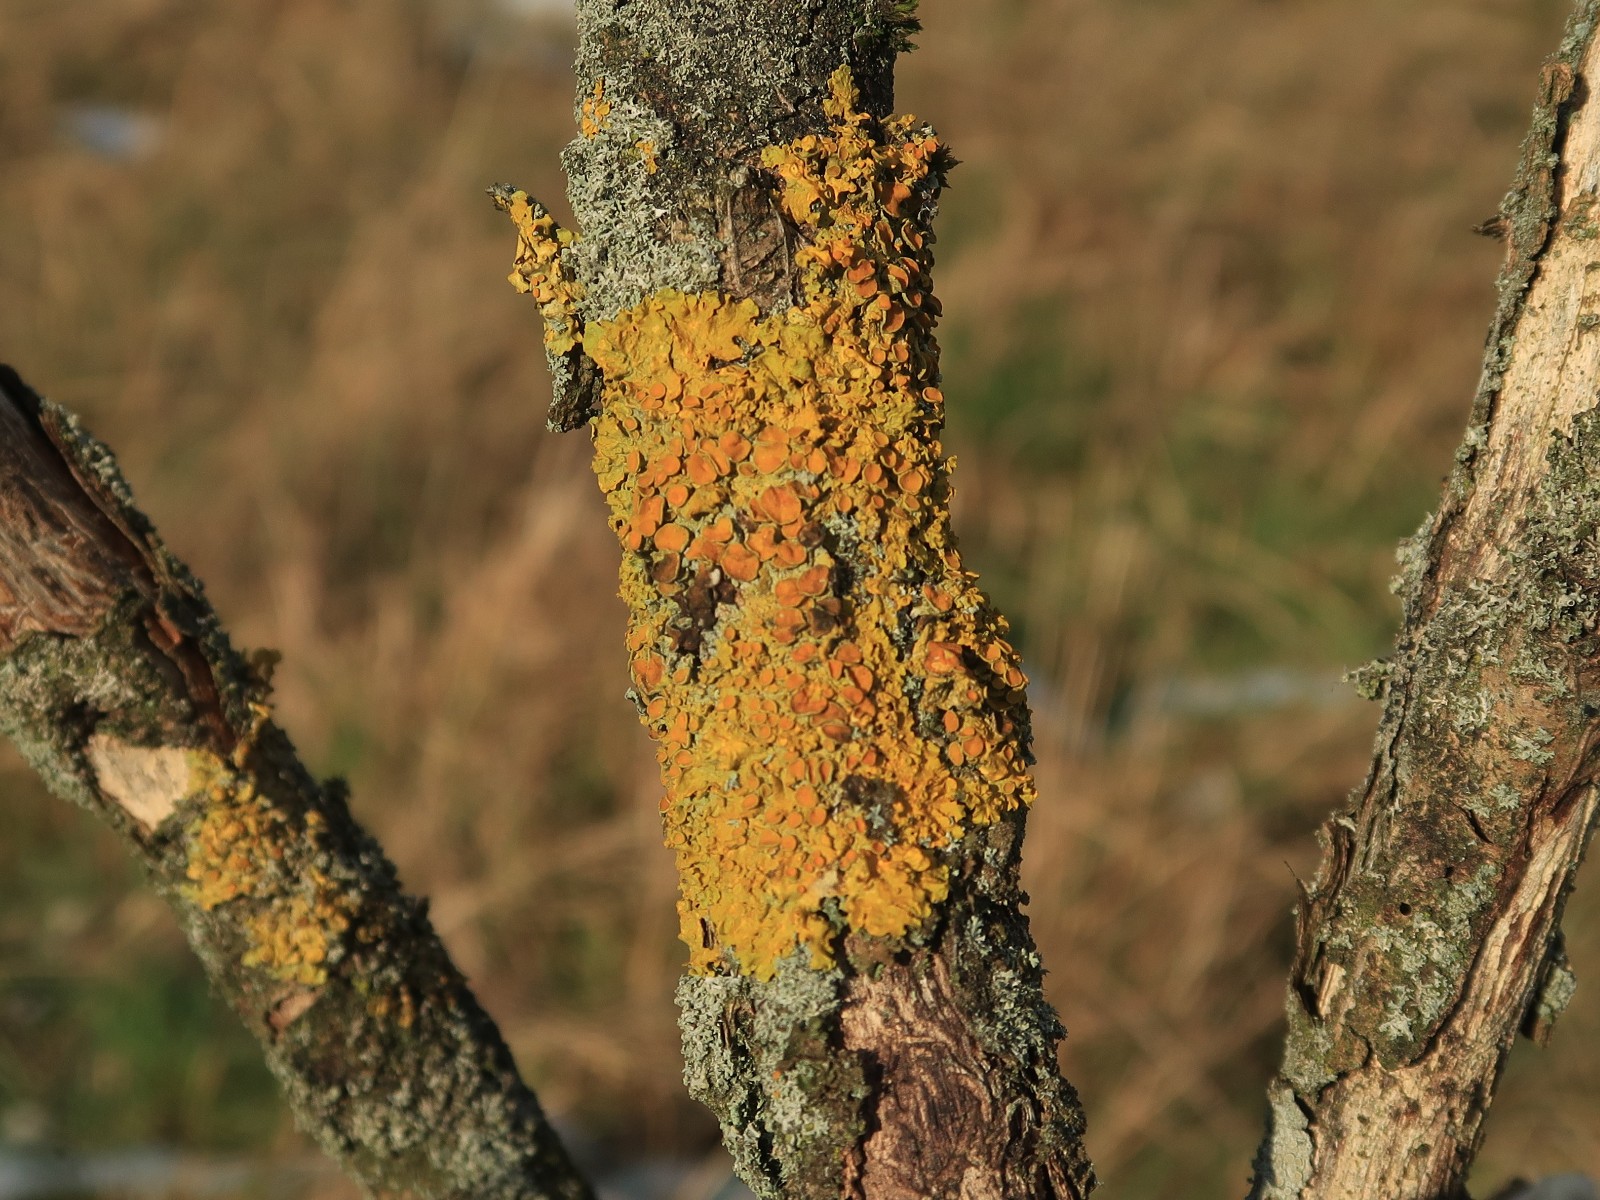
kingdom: Fungi
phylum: Ascomycota
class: Lecanoromycetes
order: Teloschistales
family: Teloschistaceae
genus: Xanthoria
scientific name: Xanthoria parietina
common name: almindelig væggelav
